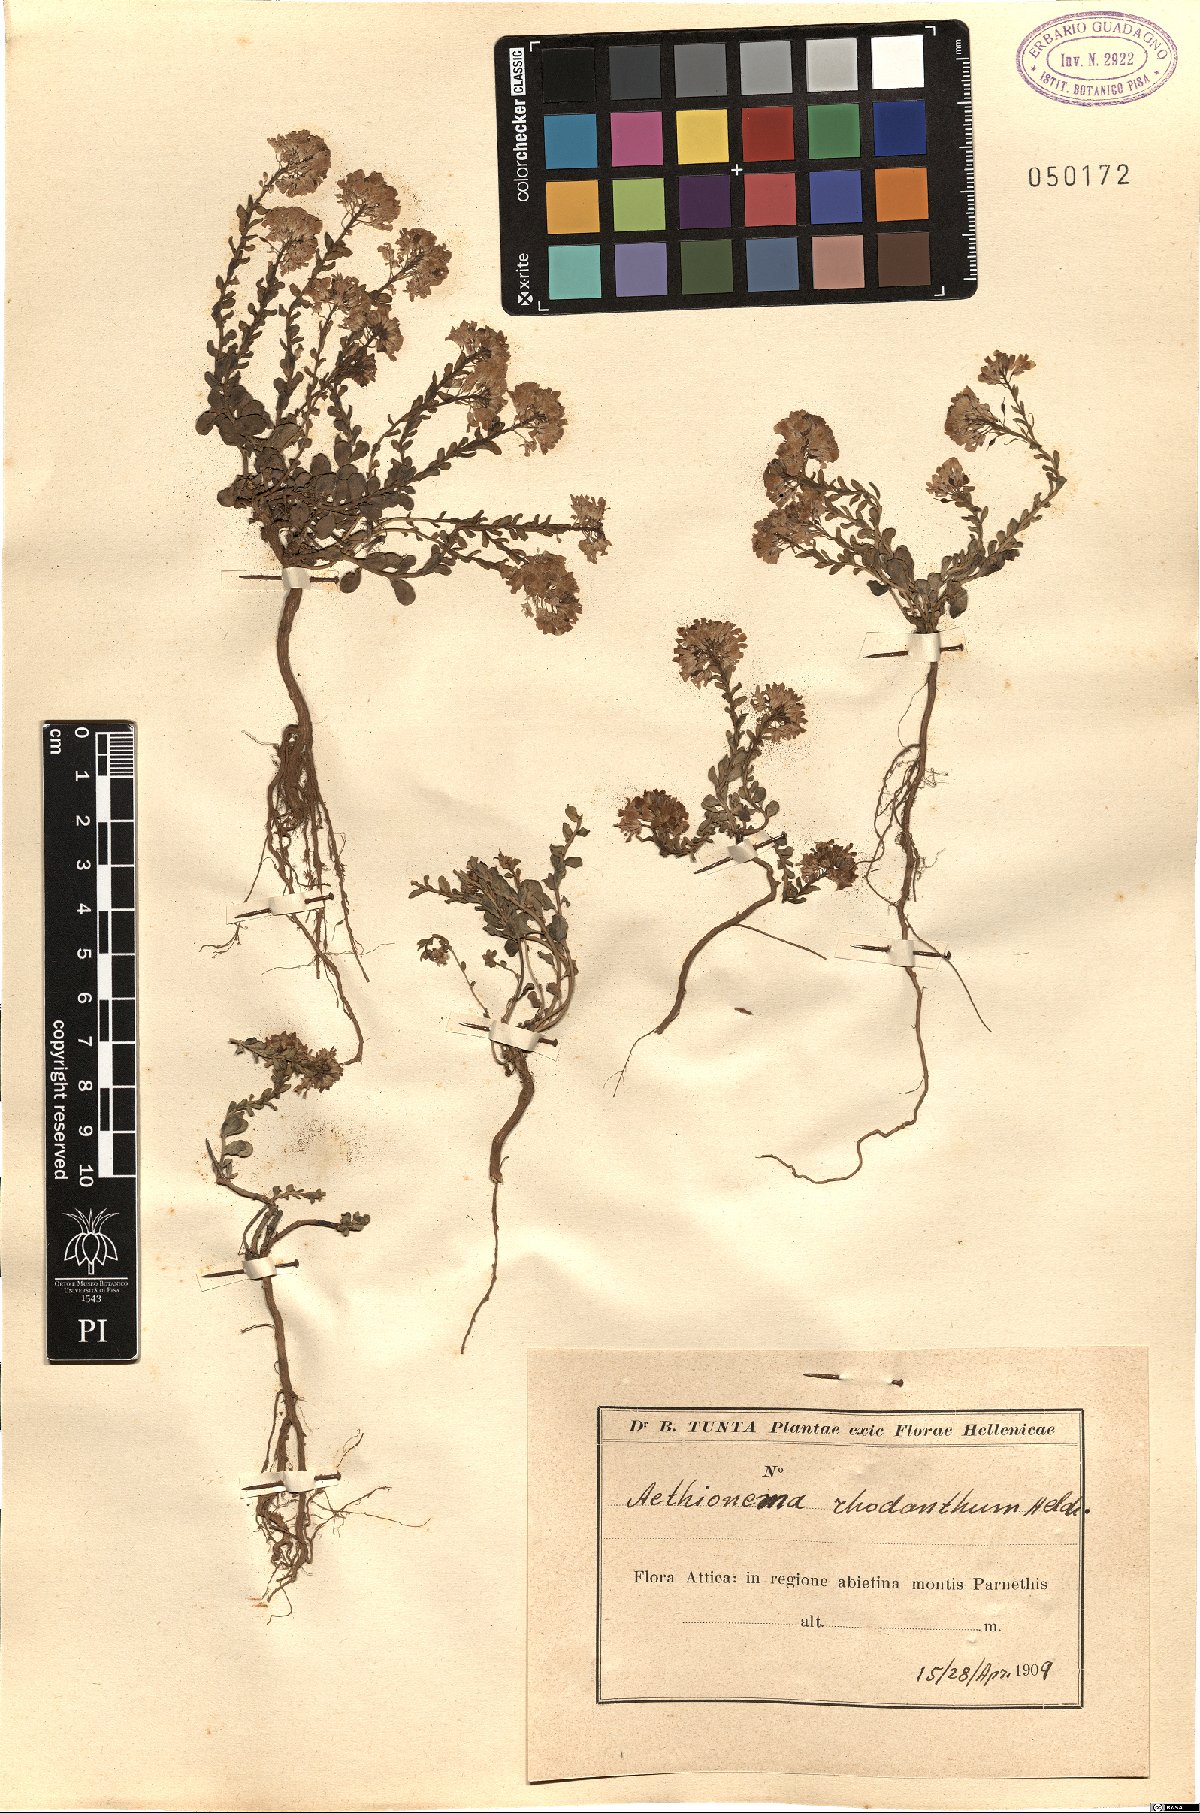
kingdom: Plantae
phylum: Tracheophyta
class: Magnoliopsida
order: Brassicales
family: Brassicaceae
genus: Aethionema
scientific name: Aethionema
